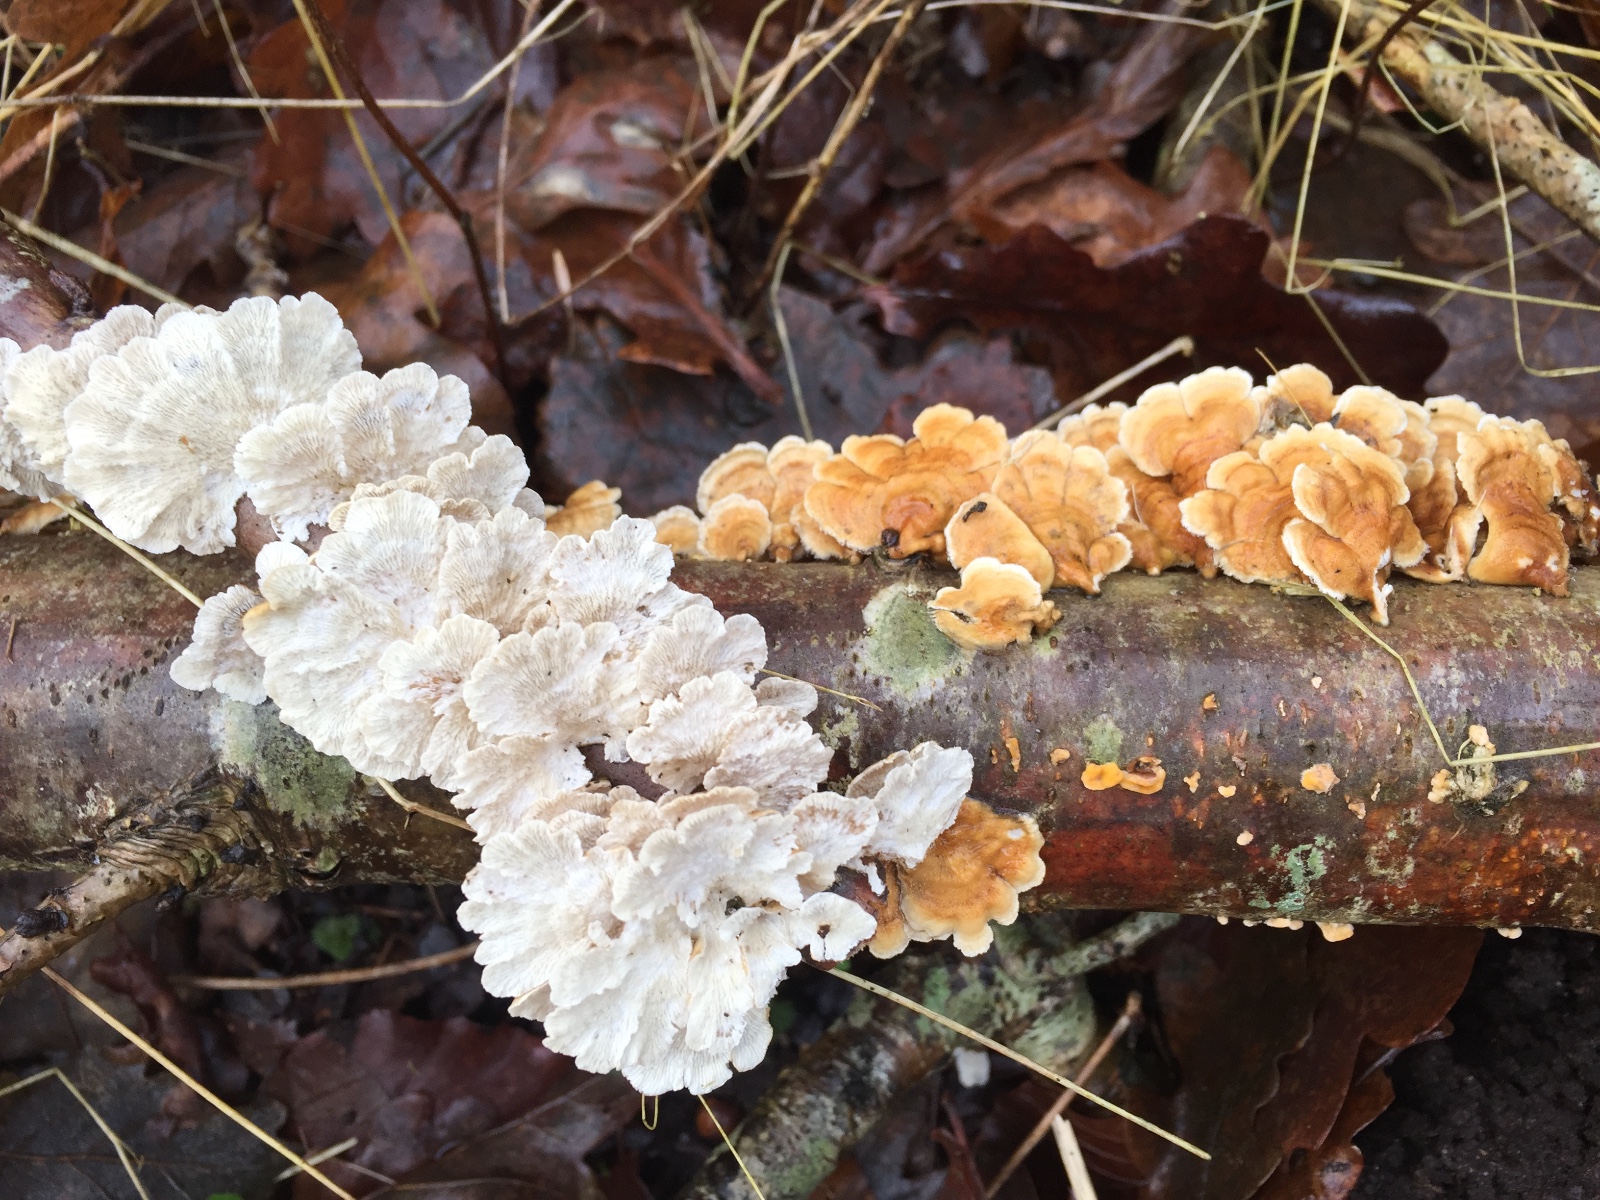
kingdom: Fungi
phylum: Basidiomycota
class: Agaricomycetes
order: Amylocorticiales
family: Amylocorticiaceae
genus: Plicaturopsis
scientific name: Plicaturopsis crispa
